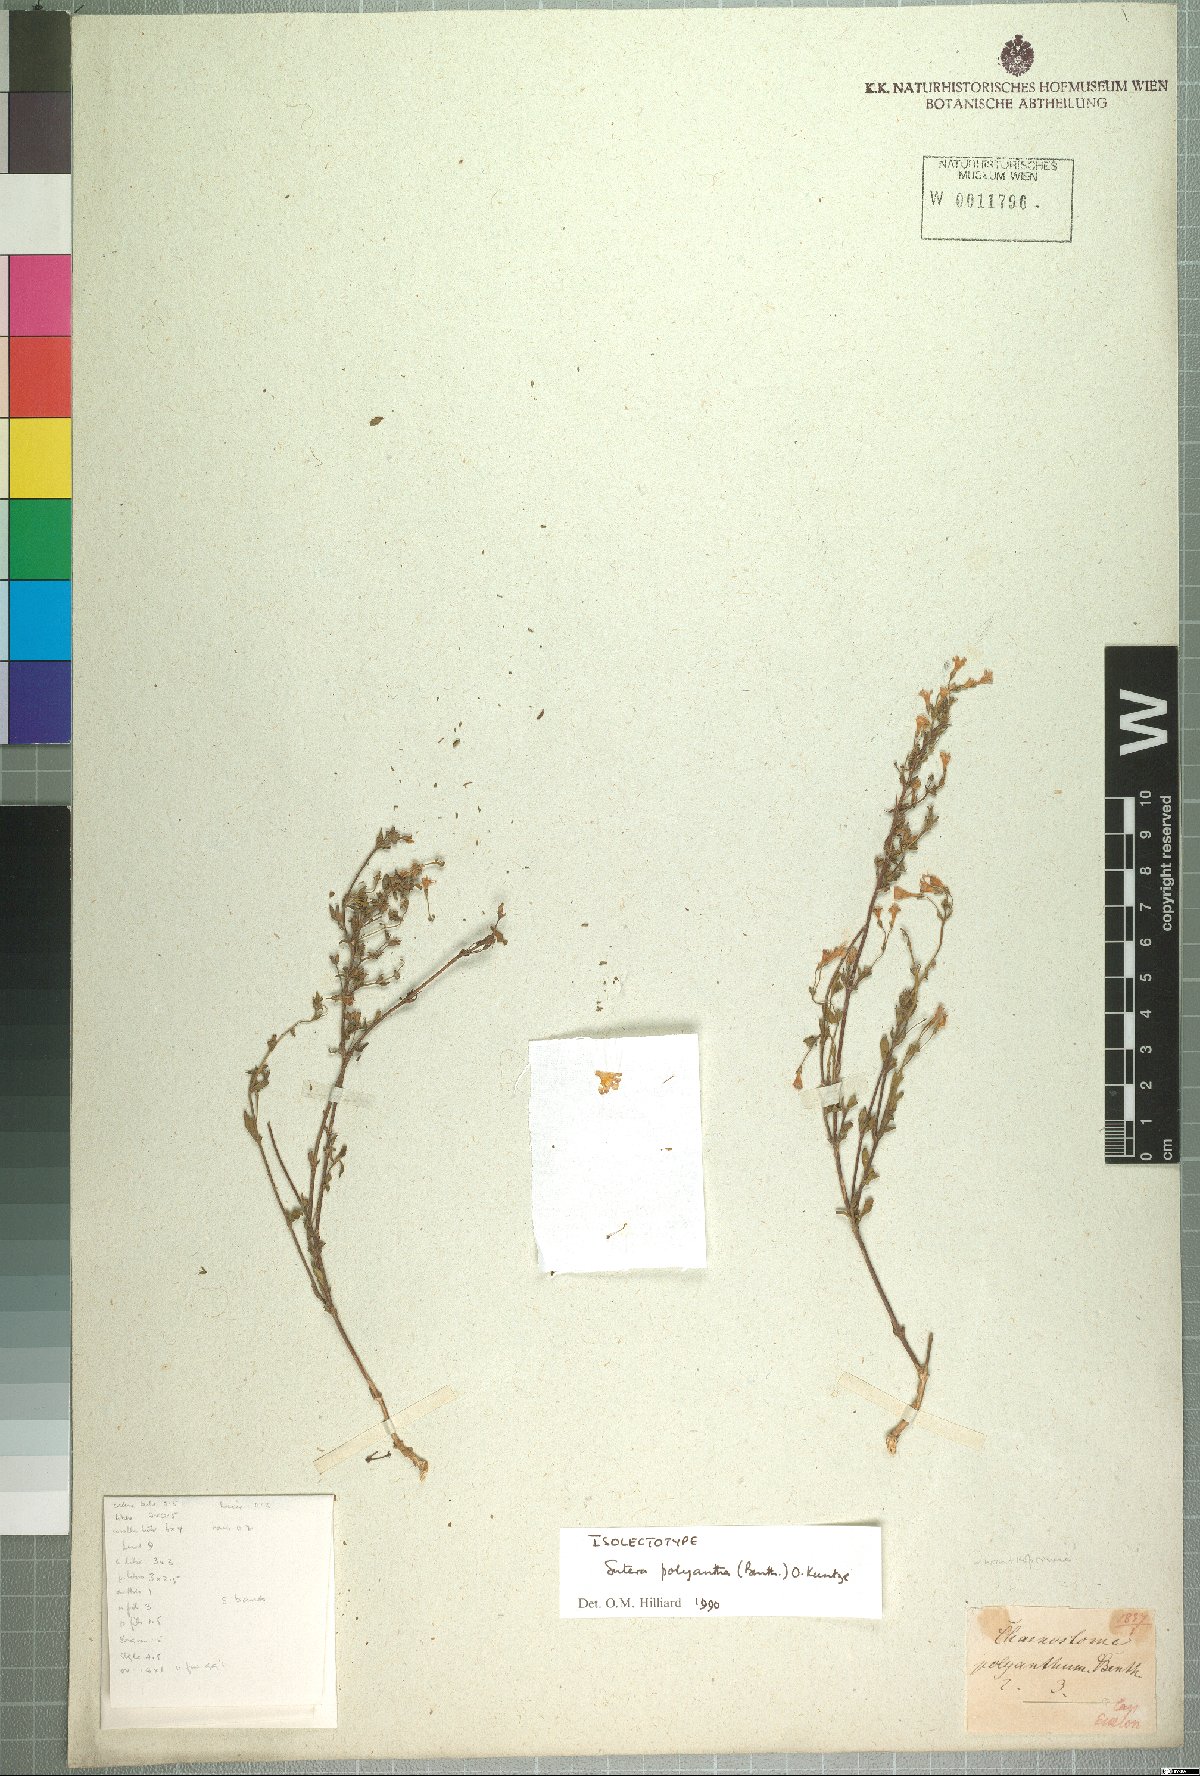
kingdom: Plantae
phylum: Tracheophyta
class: Magnoliopsida
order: Lamiales
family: Scrophulariaceae
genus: Chaenostoma
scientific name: Chaenostoma polyanthum
